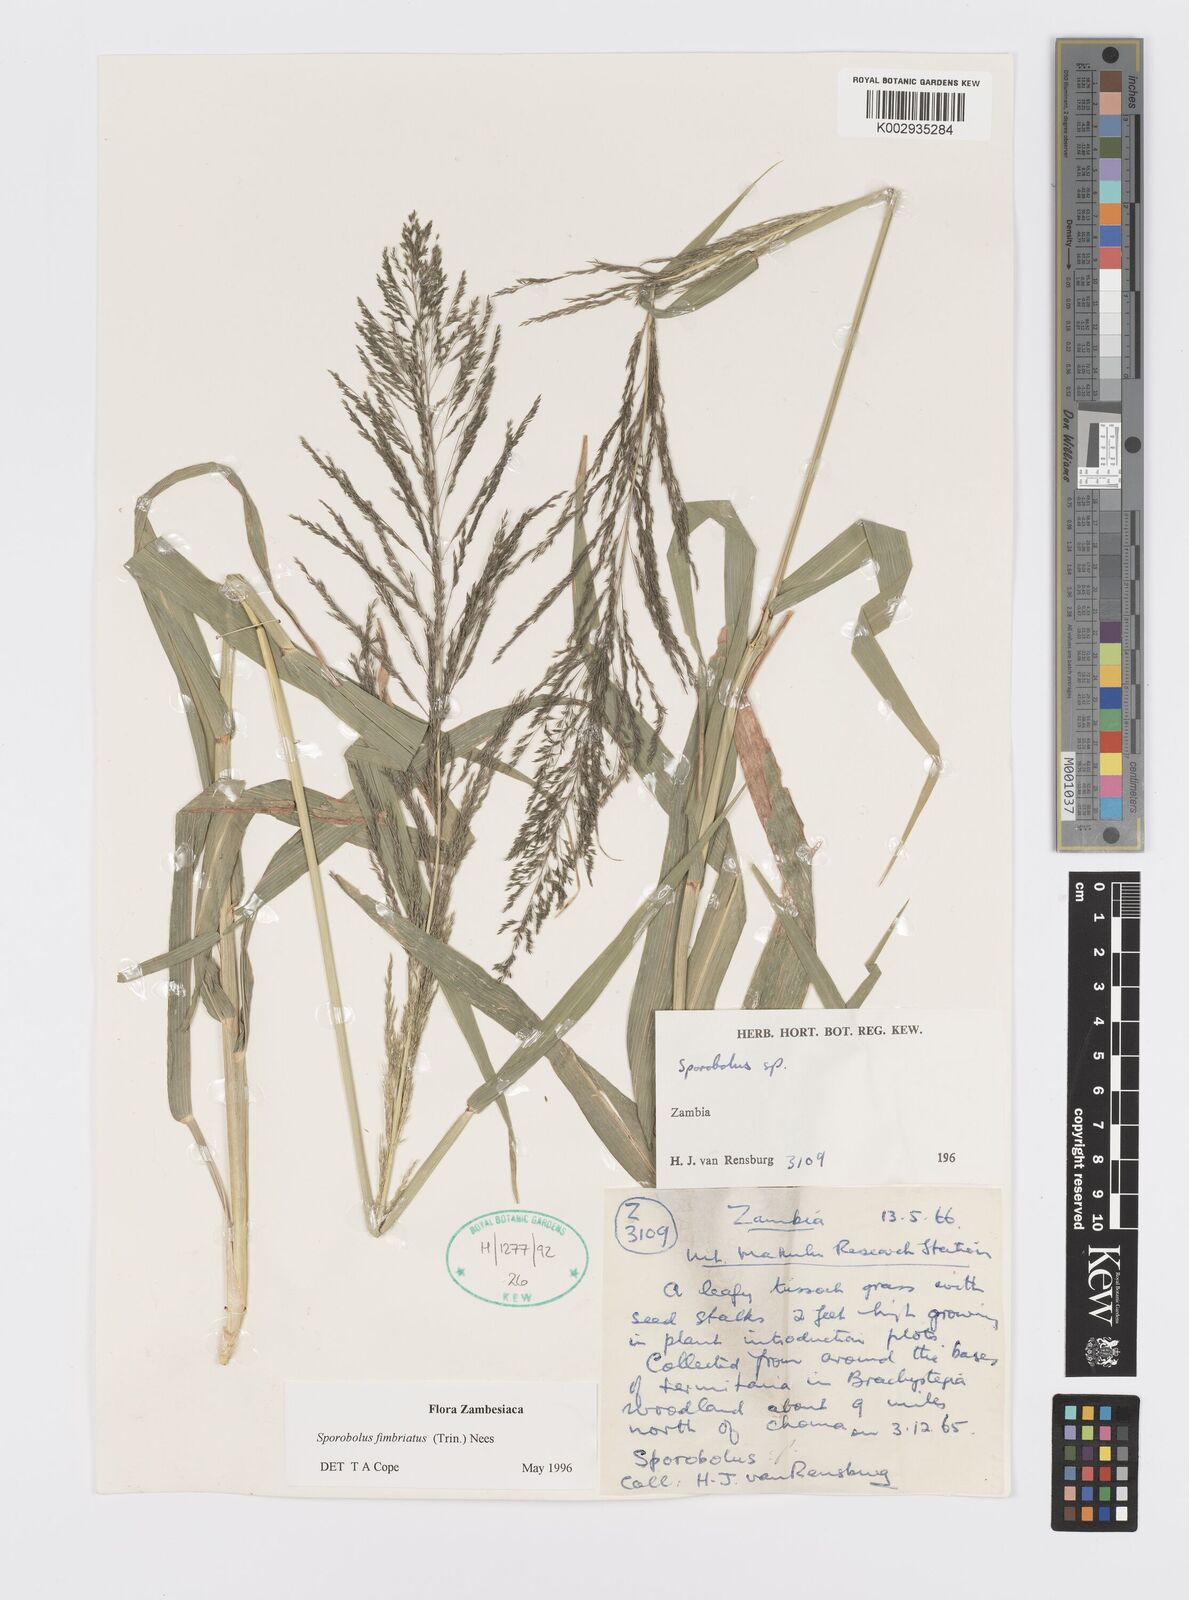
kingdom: Plantae
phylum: Tracheophyta
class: Liliopsida
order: Poales
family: Poaceae
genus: Sporobolus
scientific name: Sporobolus fimbriatus
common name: Fringed dropseed
